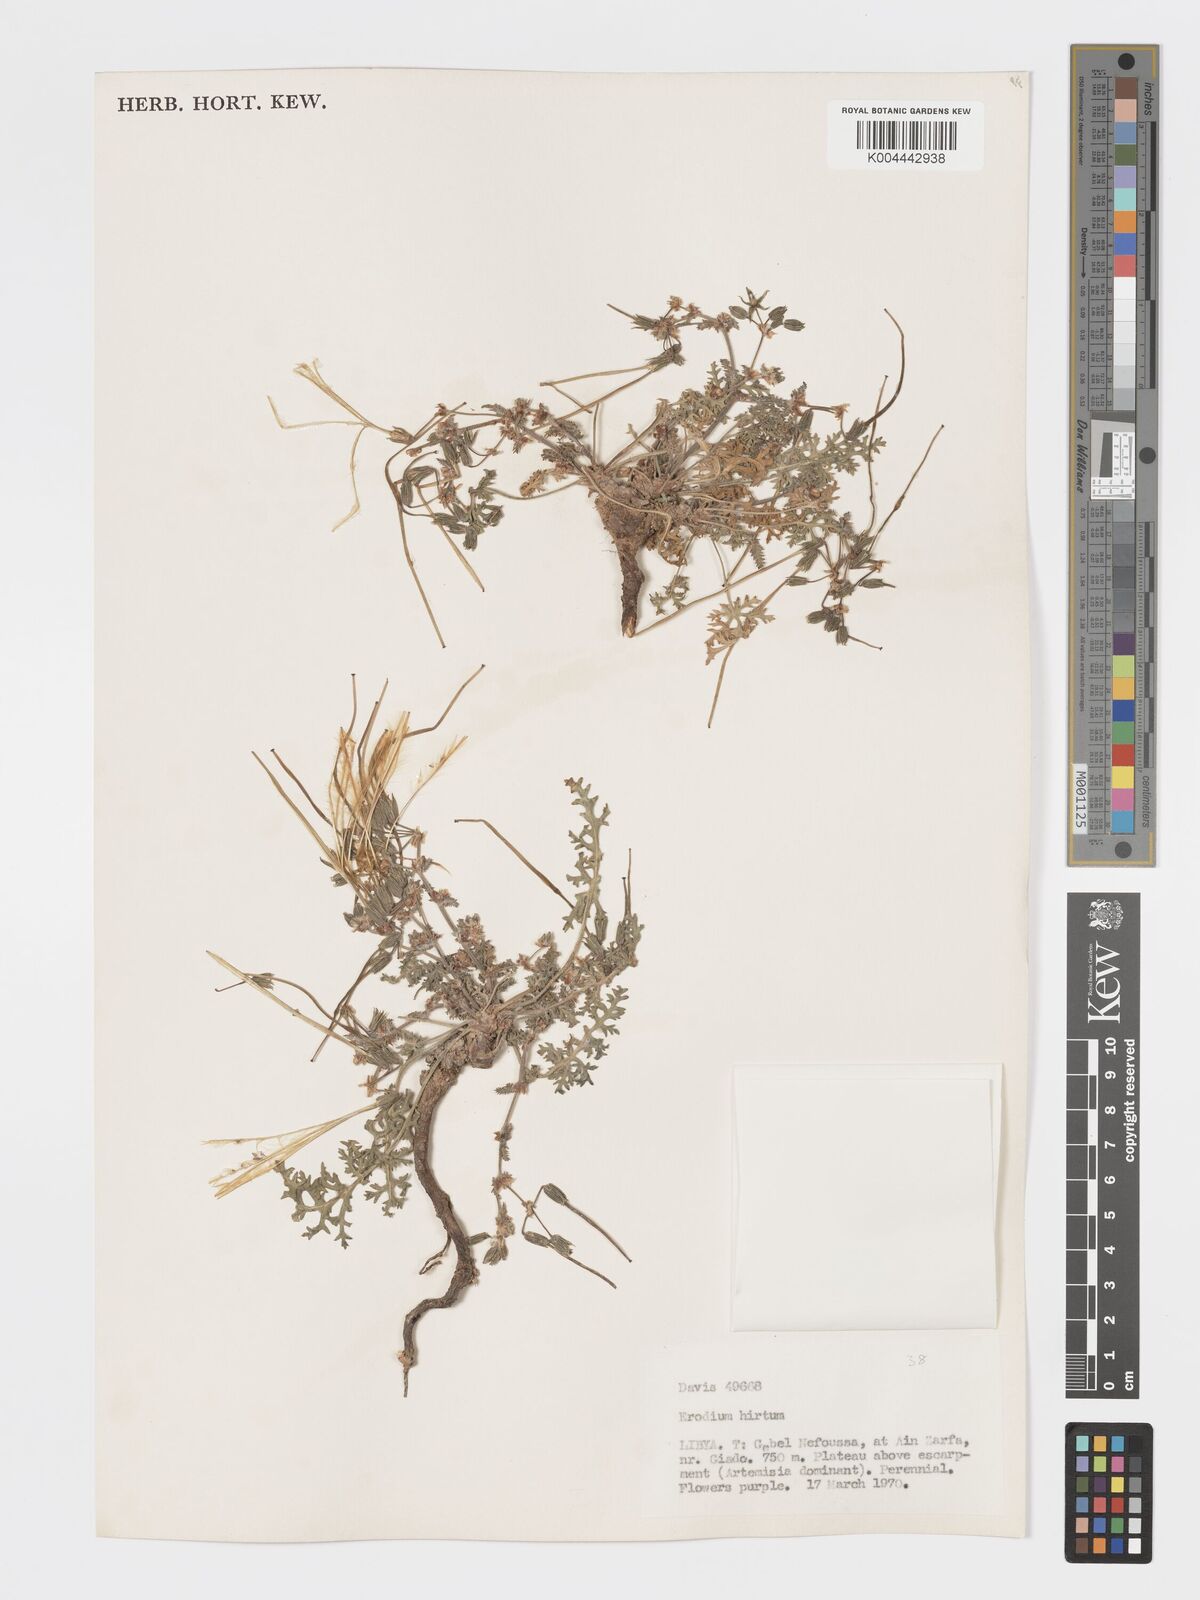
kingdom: Plantae
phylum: Tracheophyta
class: Magnoliopsida
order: Geraniales
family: Geraniaceae
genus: Erodium
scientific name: Erodium crassifolium
